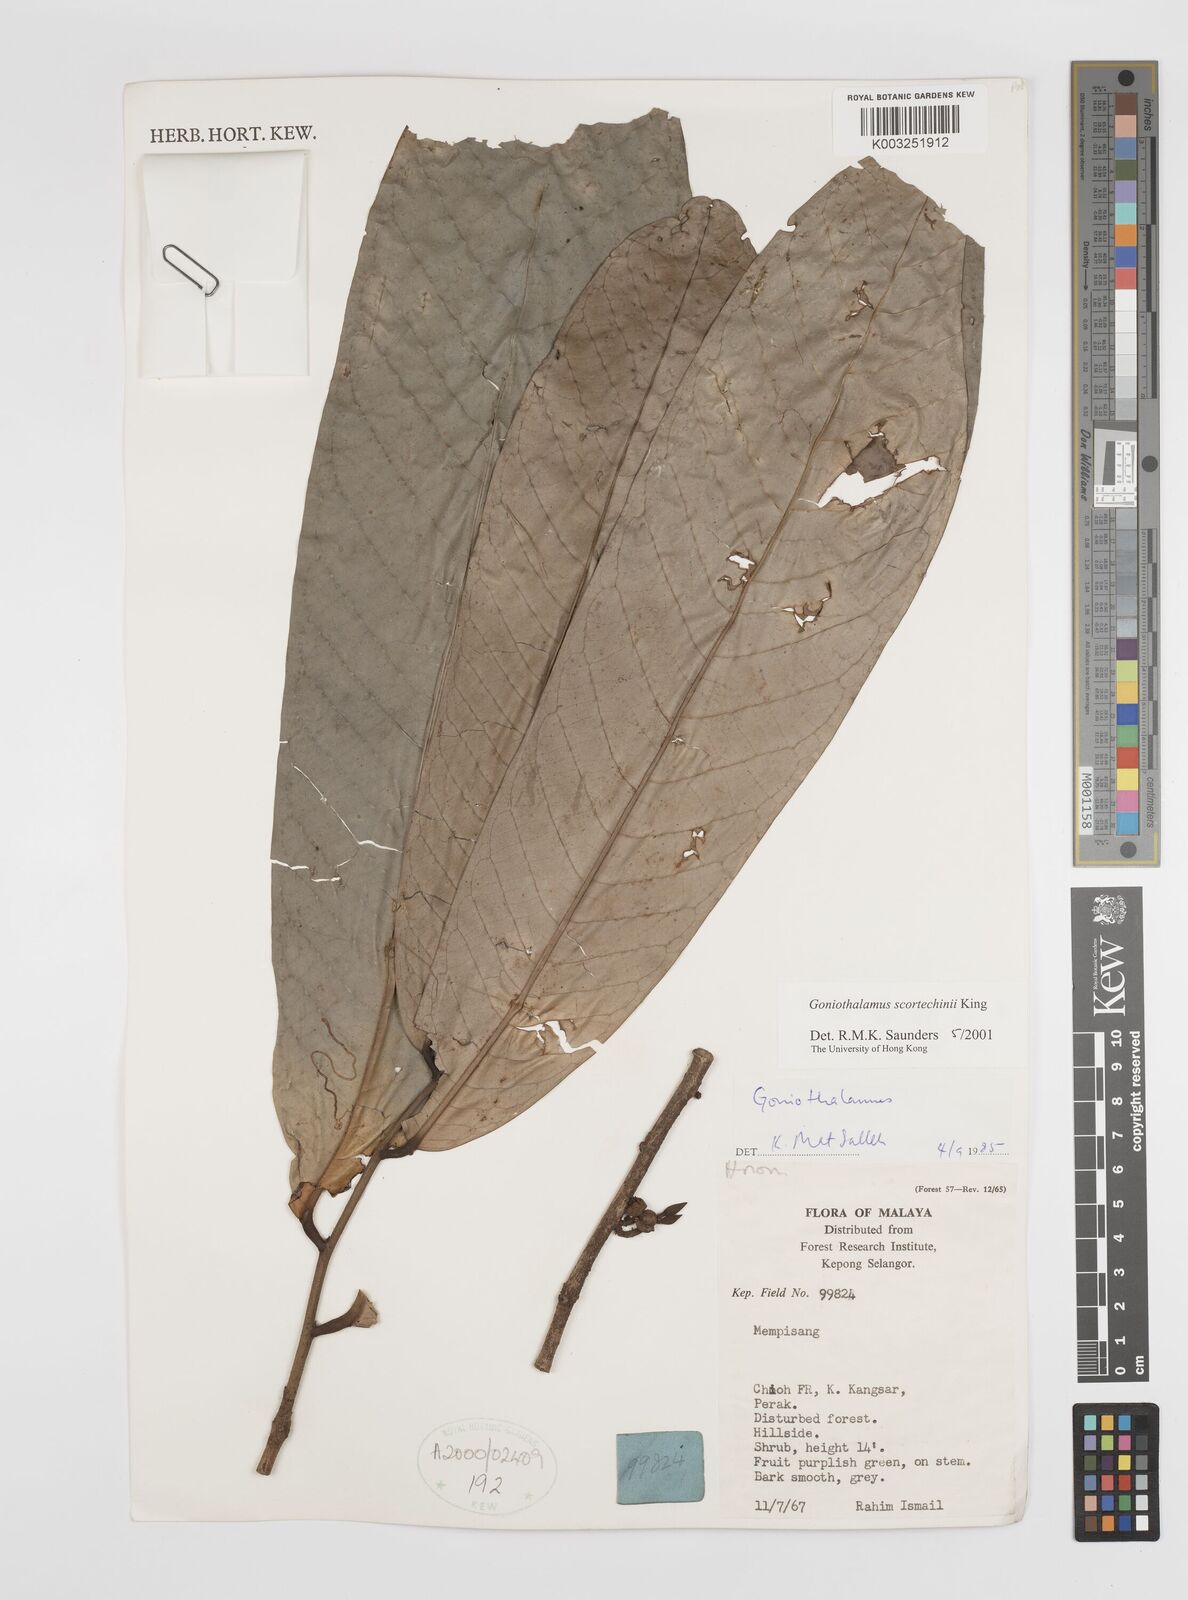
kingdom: Plantae
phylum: Tracheophyta
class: Magnoliopsida
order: Magnoliales
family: Annonaceae
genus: Goniothalamus
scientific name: Goniothalamus scortechinii
